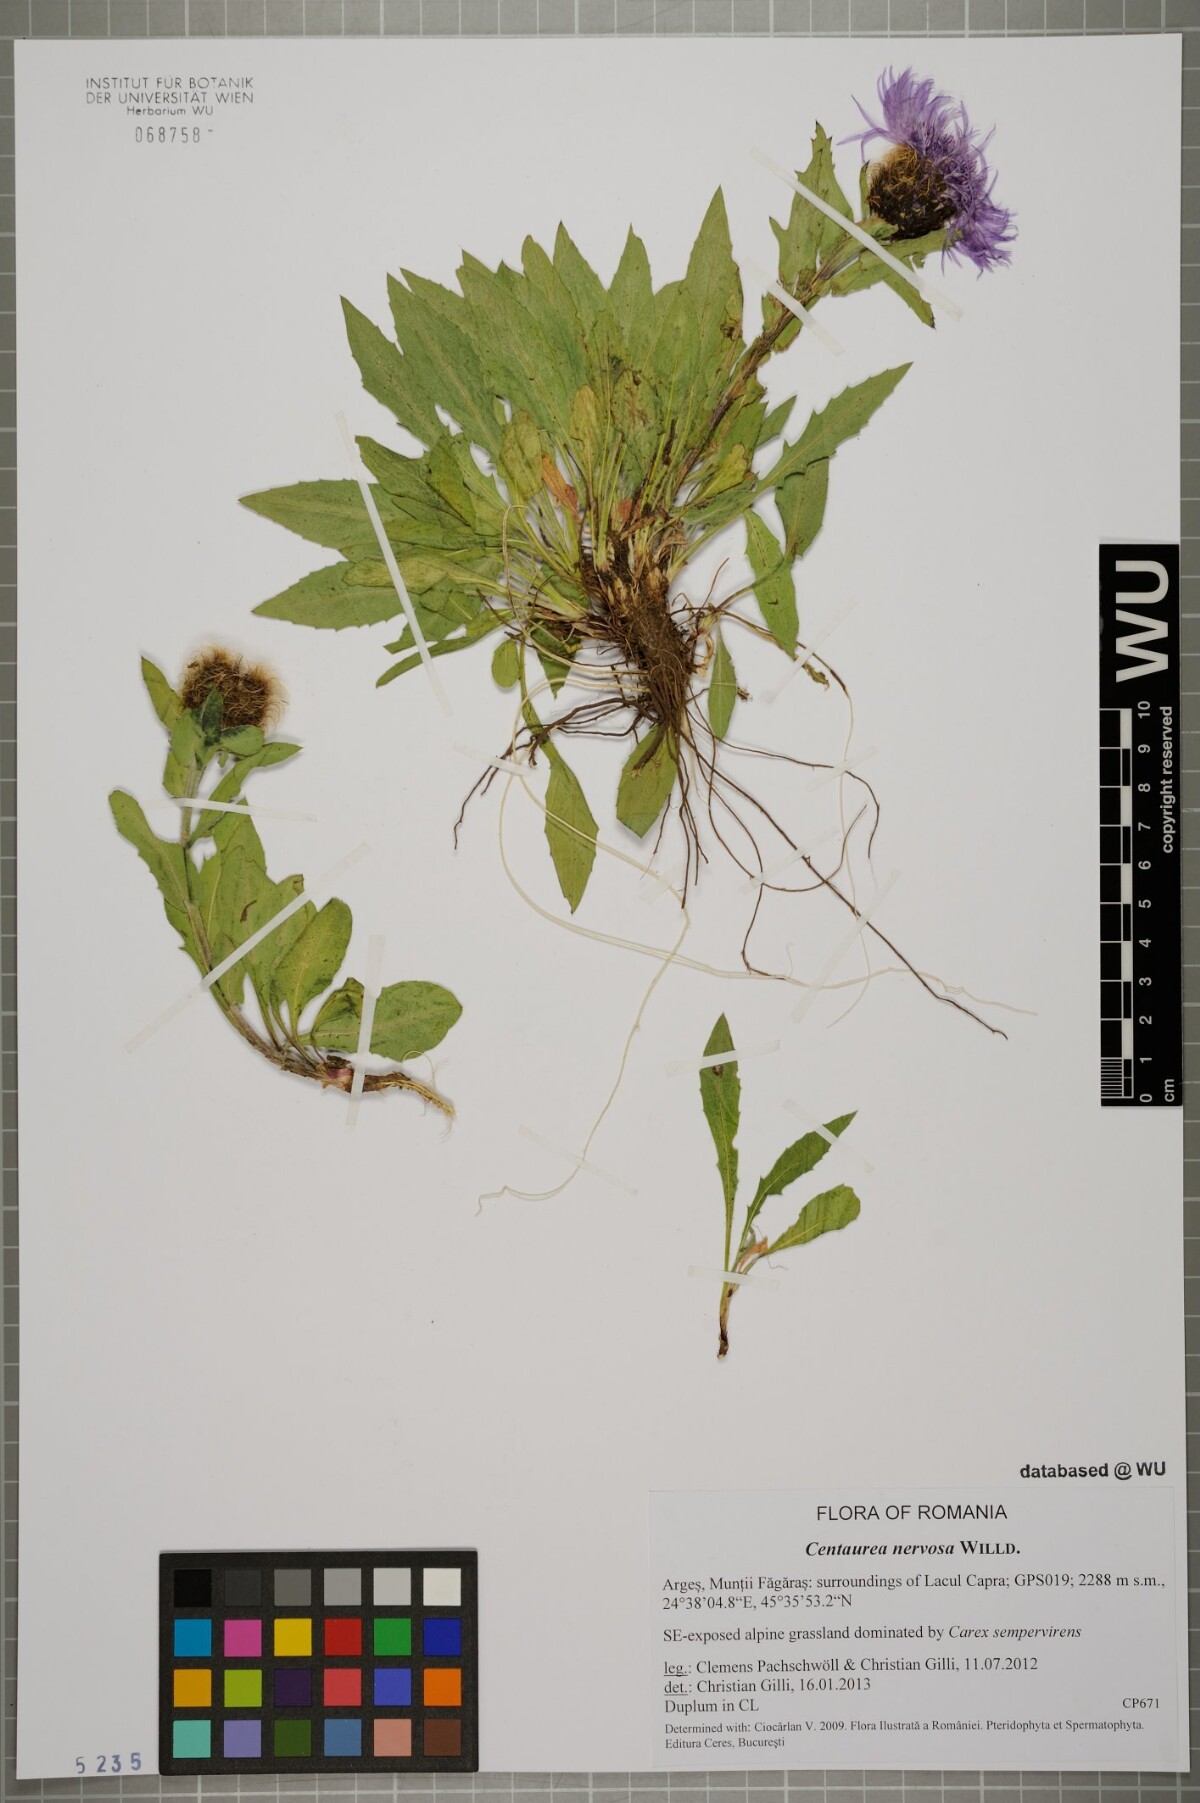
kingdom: Plantae
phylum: Tracheophyta
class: Magnoliopsida
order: Asterales
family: Asteraceae
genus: Centaurea
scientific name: Centaurea nervosa
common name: Singleflower knapweed
